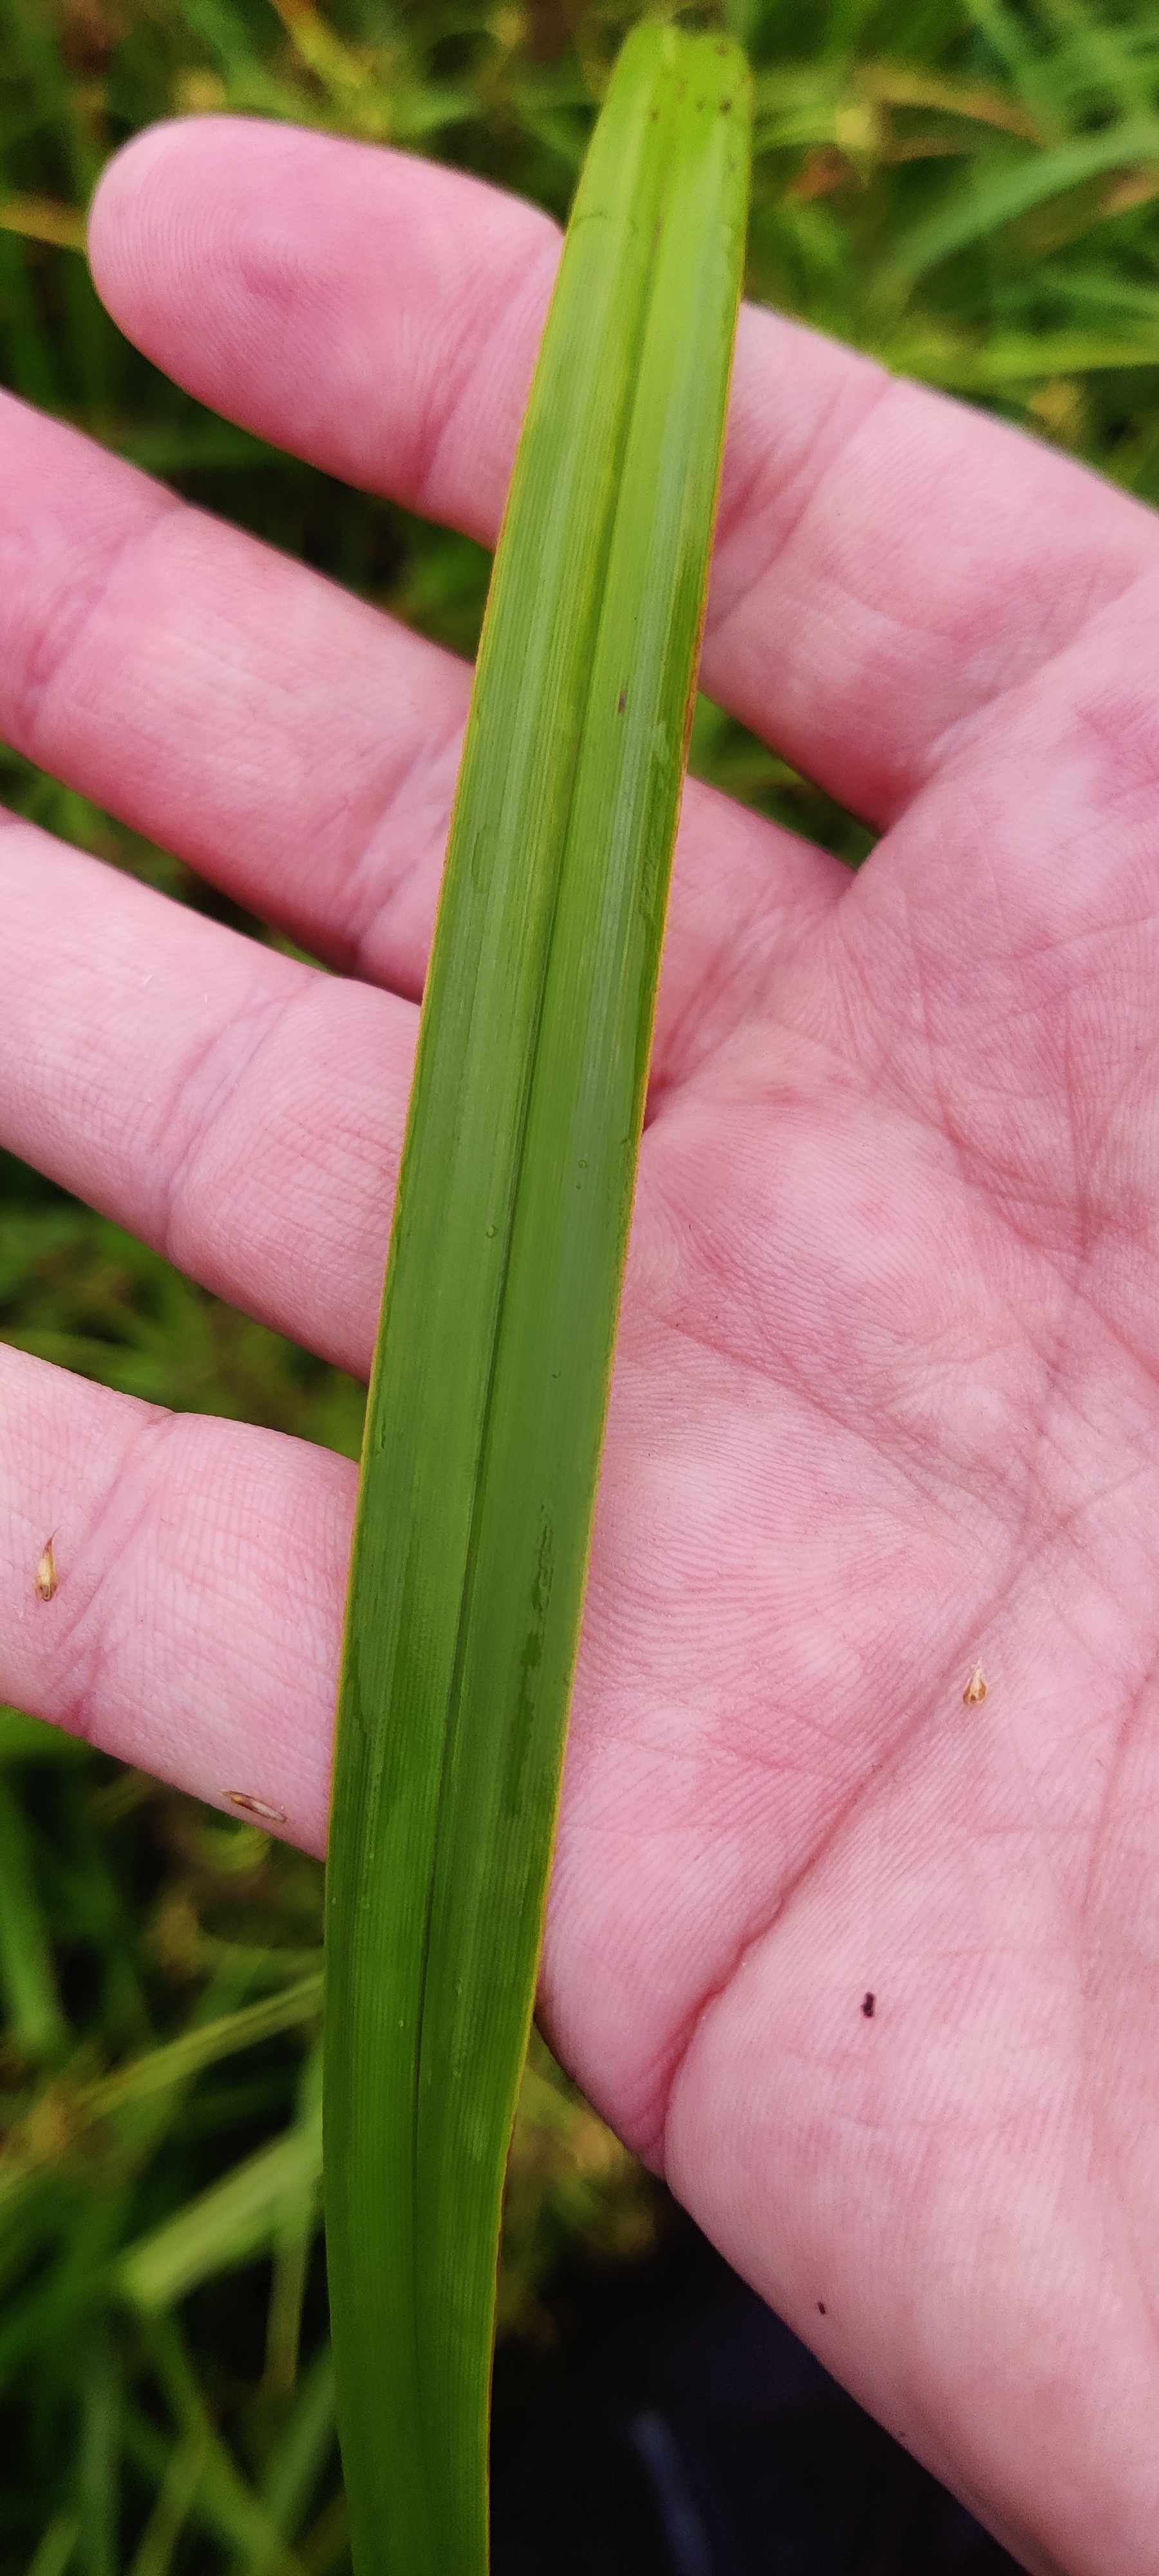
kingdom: Plantae
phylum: Tracheophyta
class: Liliopsida
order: Poales
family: Cyperaceae
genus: Scirpus
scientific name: Scirpus sylvaticus
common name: Skov-kogleaks
